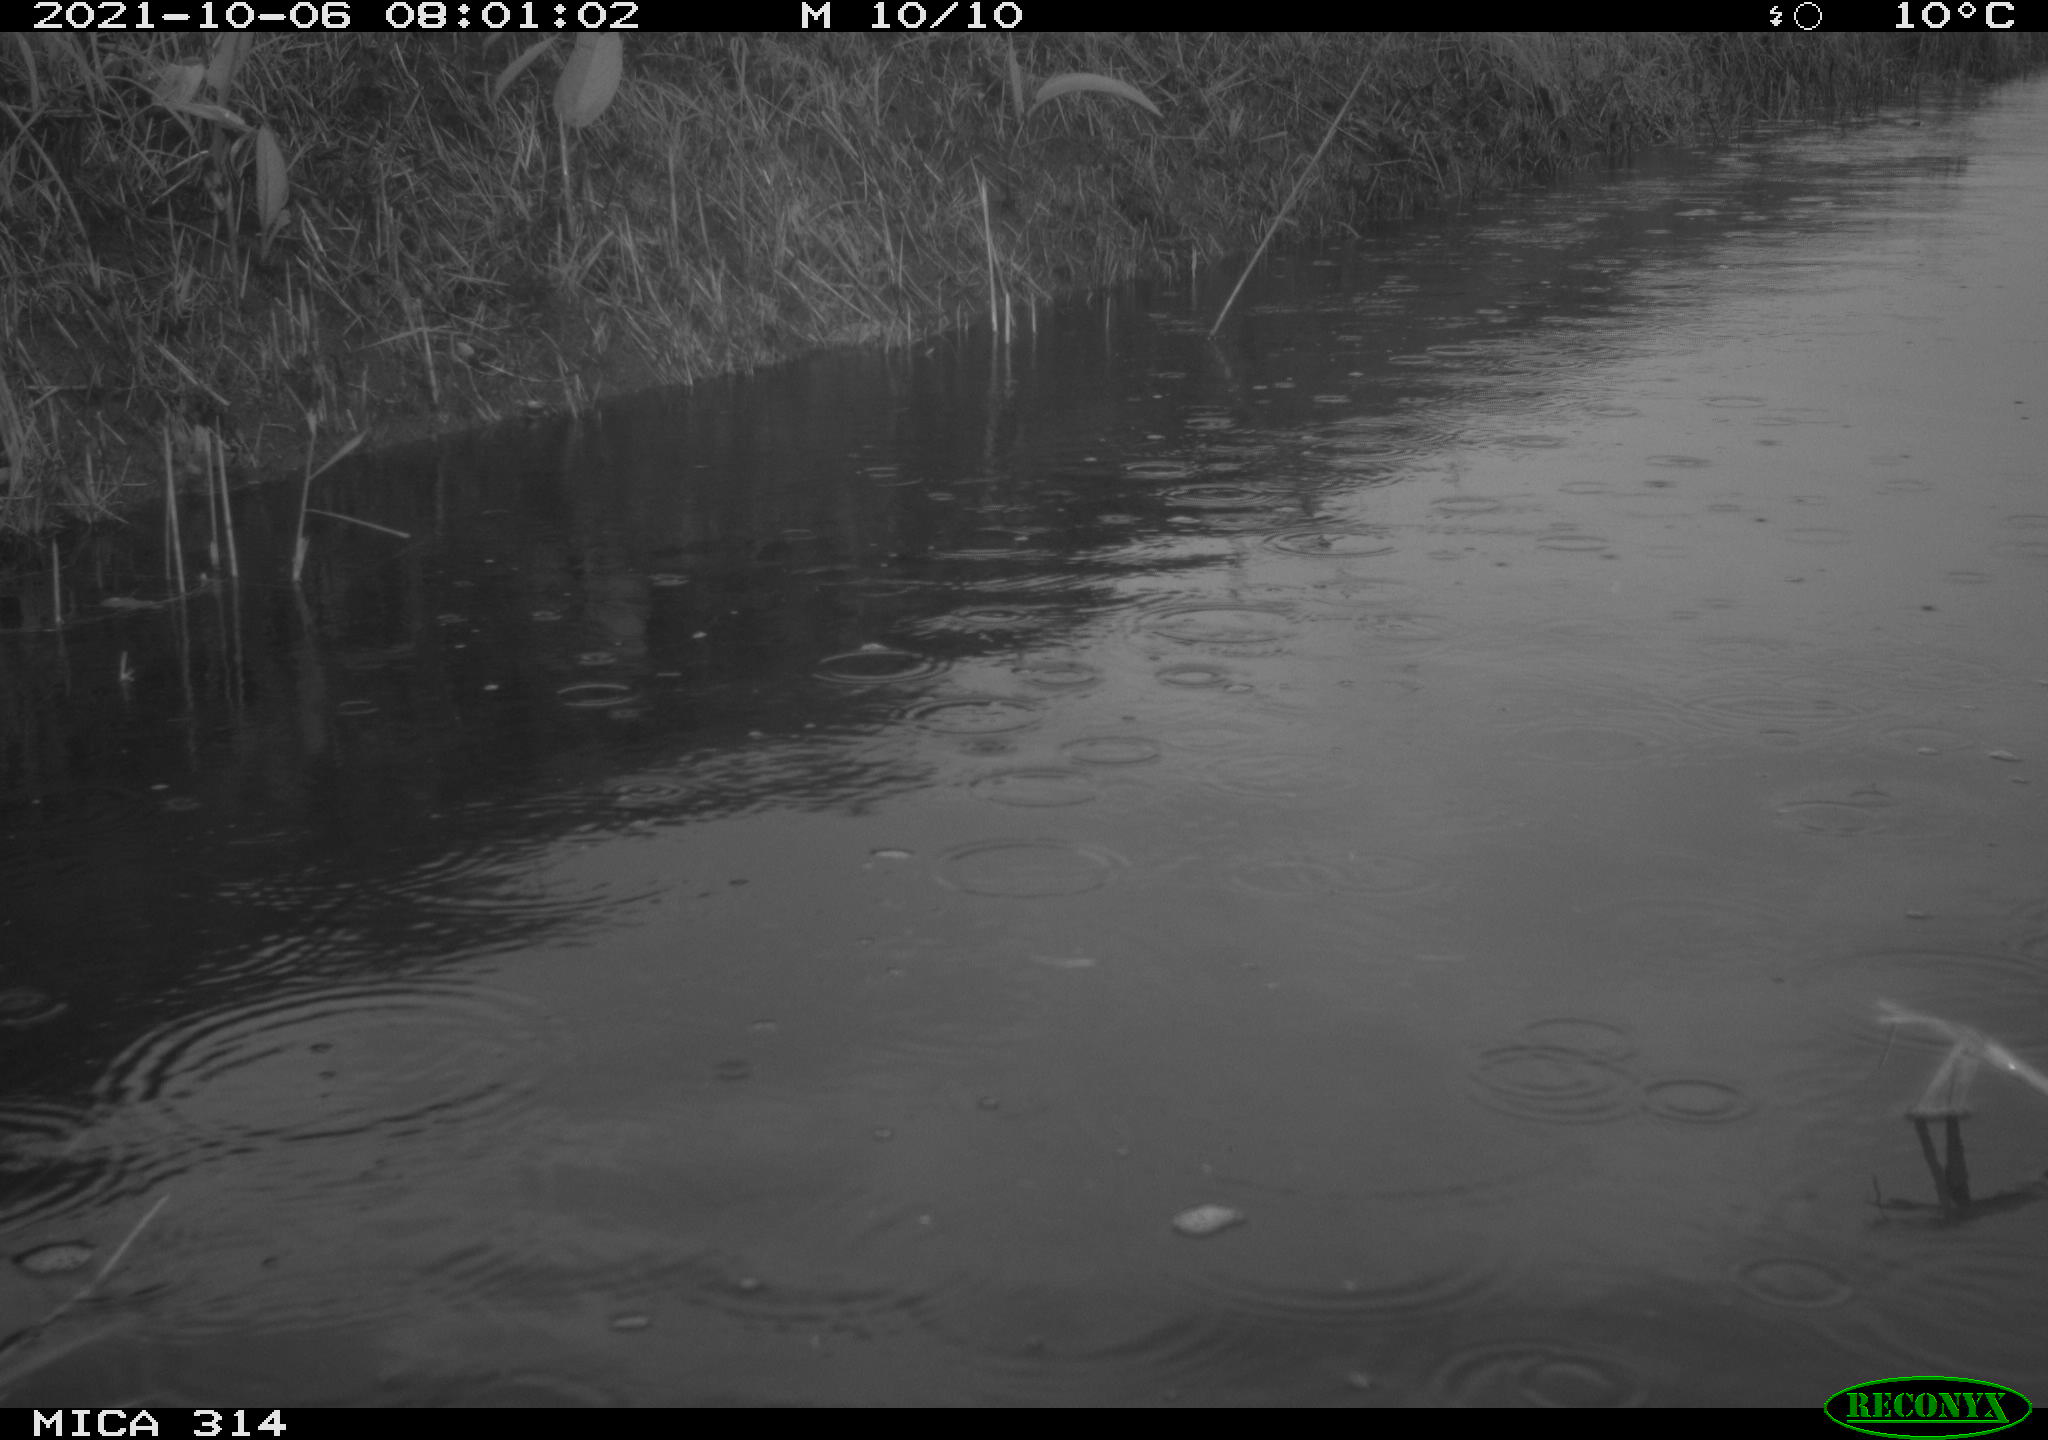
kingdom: Animalia
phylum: Chordata
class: Aves
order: Gruiformes
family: Rallidae
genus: Gallinula
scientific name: Gallinula chloropus
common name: Common moorhen
